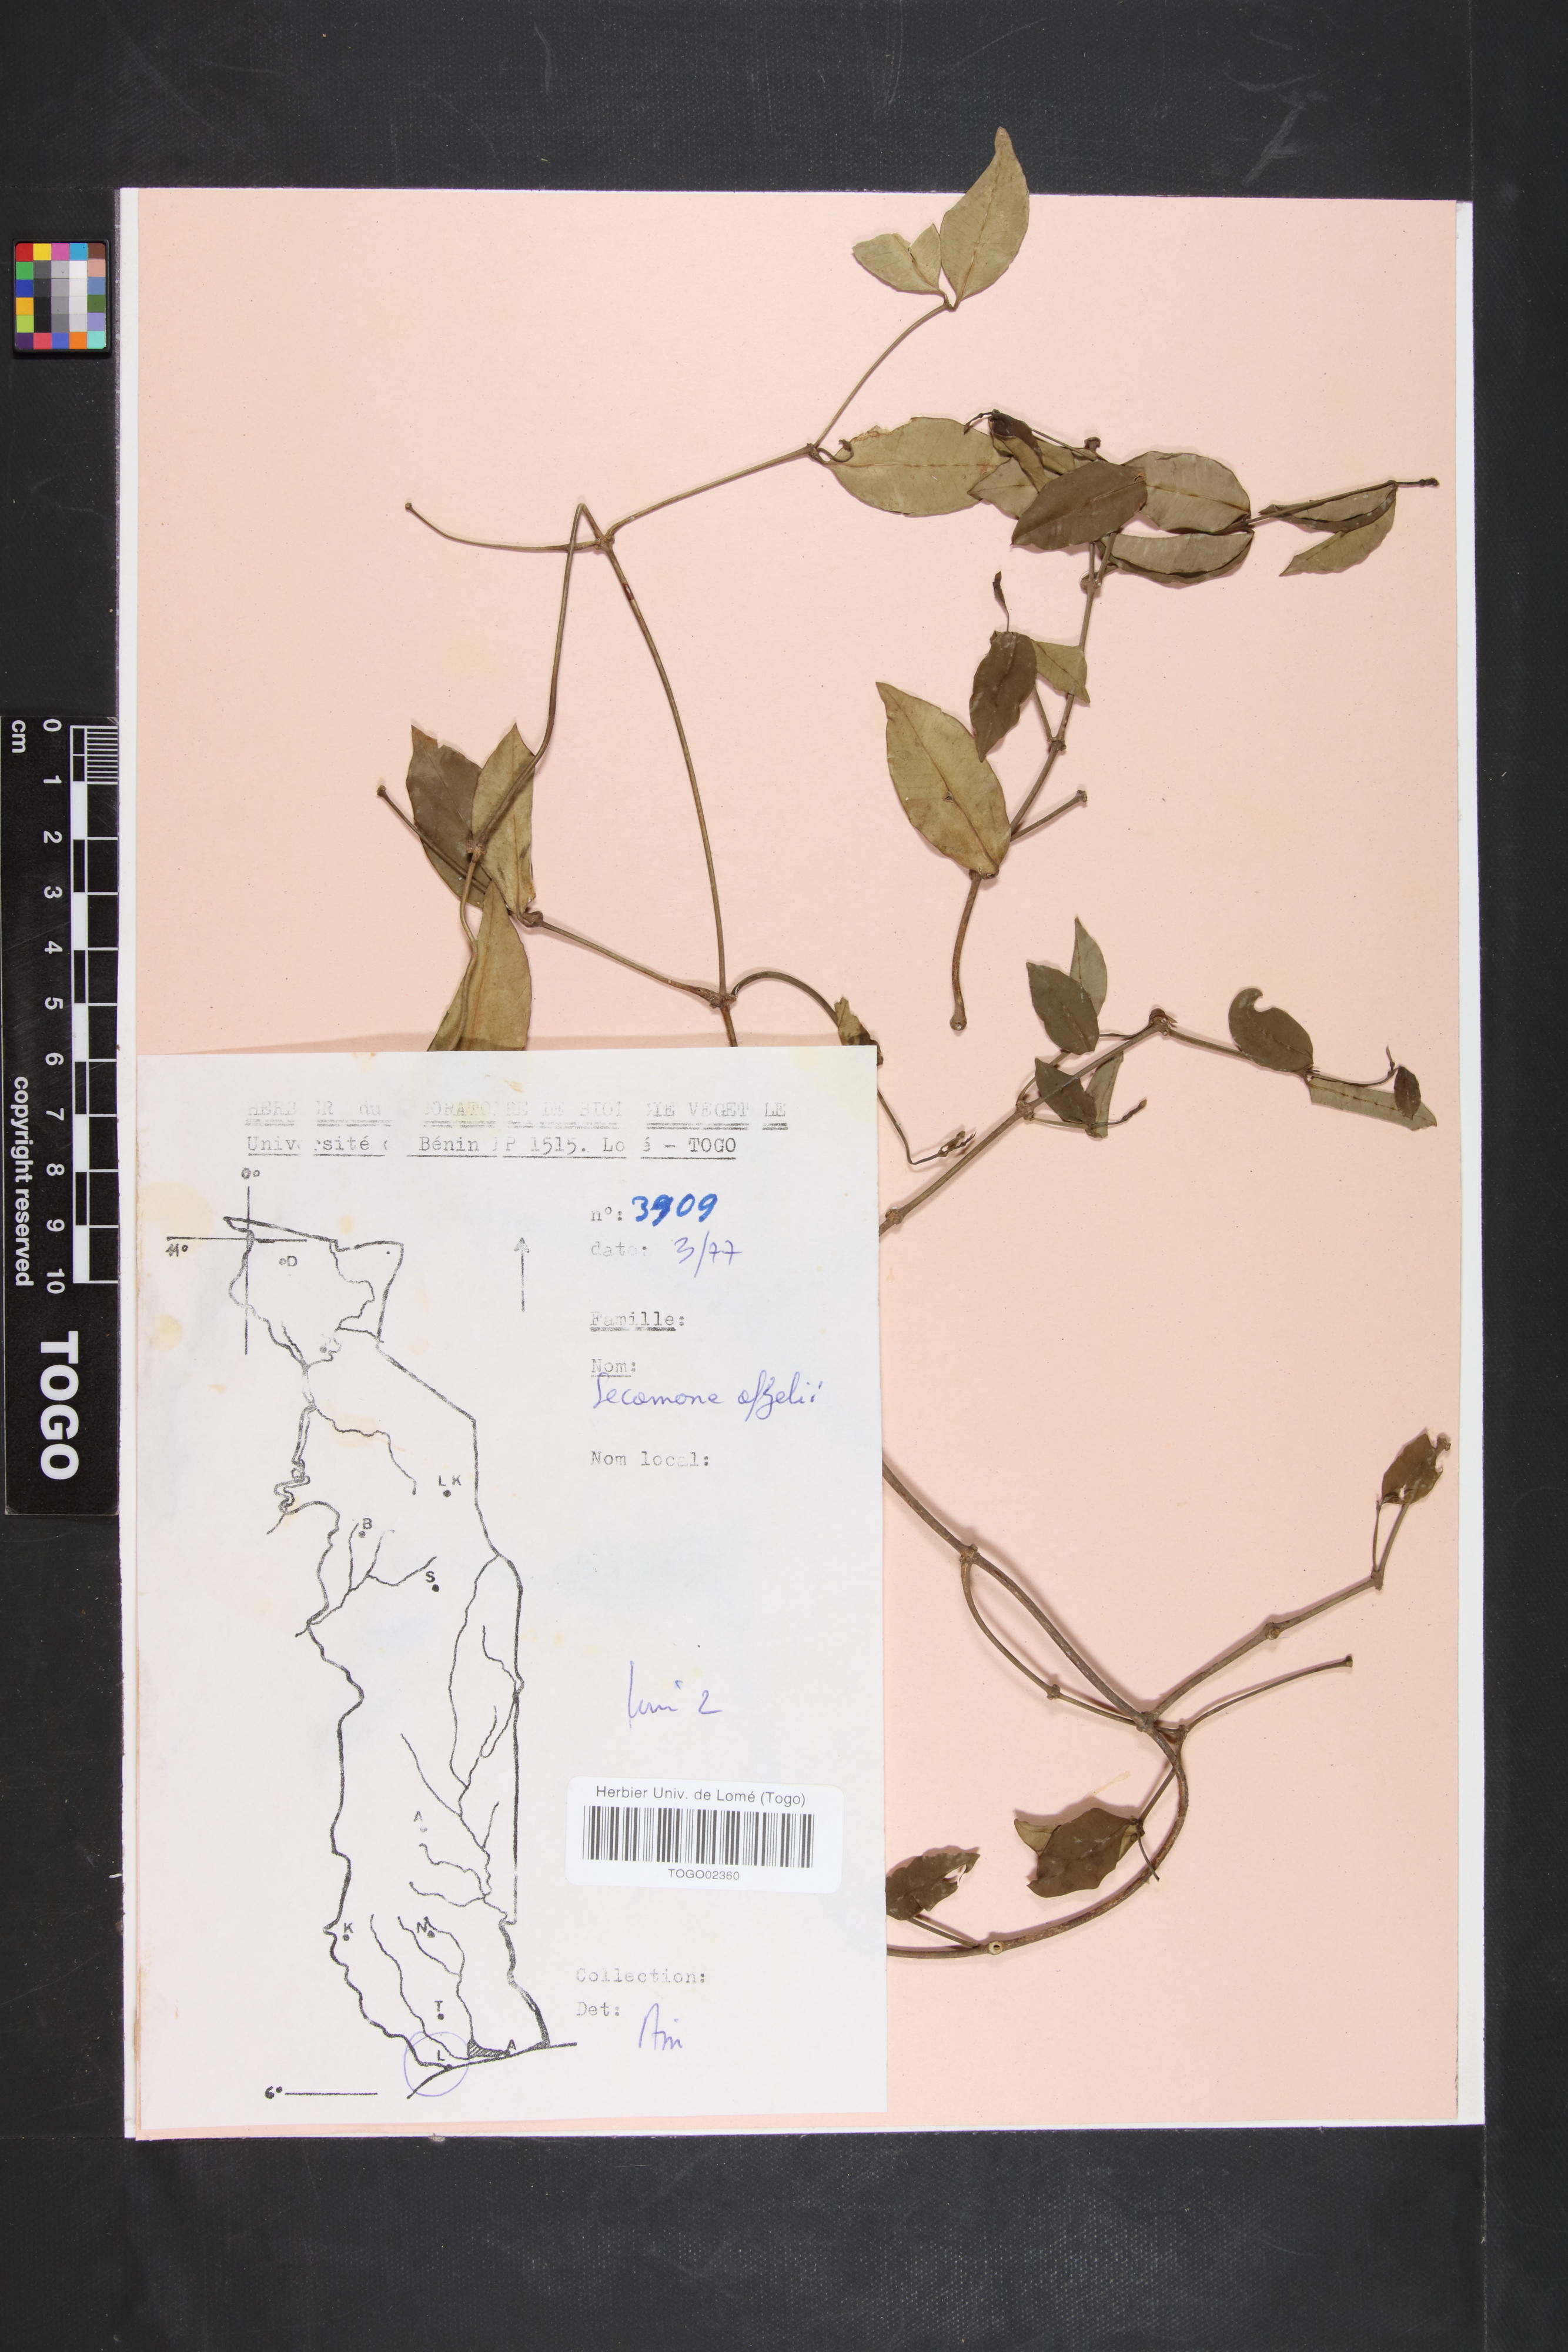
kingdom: Plantae
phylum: Tracheophyta
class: Magnoliopsida
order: Gentianales
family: Apocynaceae
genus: Secamone
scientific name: Secamone afzelii
